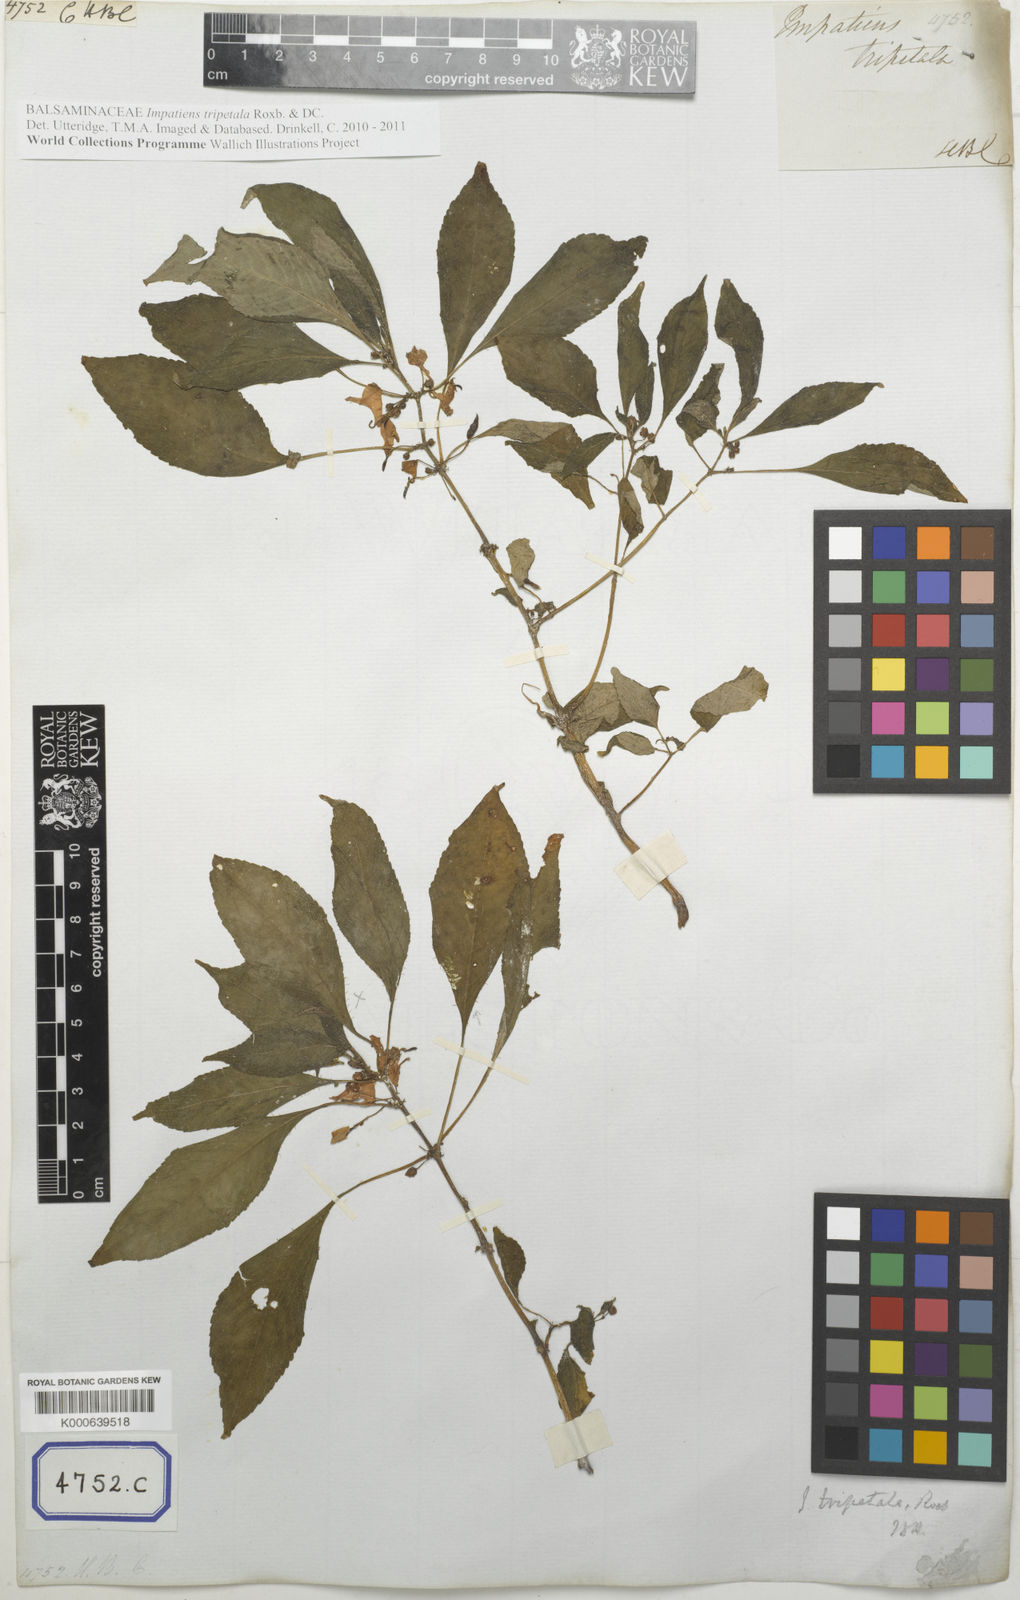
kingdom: Plantae
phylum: Tracheophyta
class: Magnoliopsida
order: Ericales
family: Balsaminaceae
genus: Impatiens
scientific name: Impatiens tripetala
